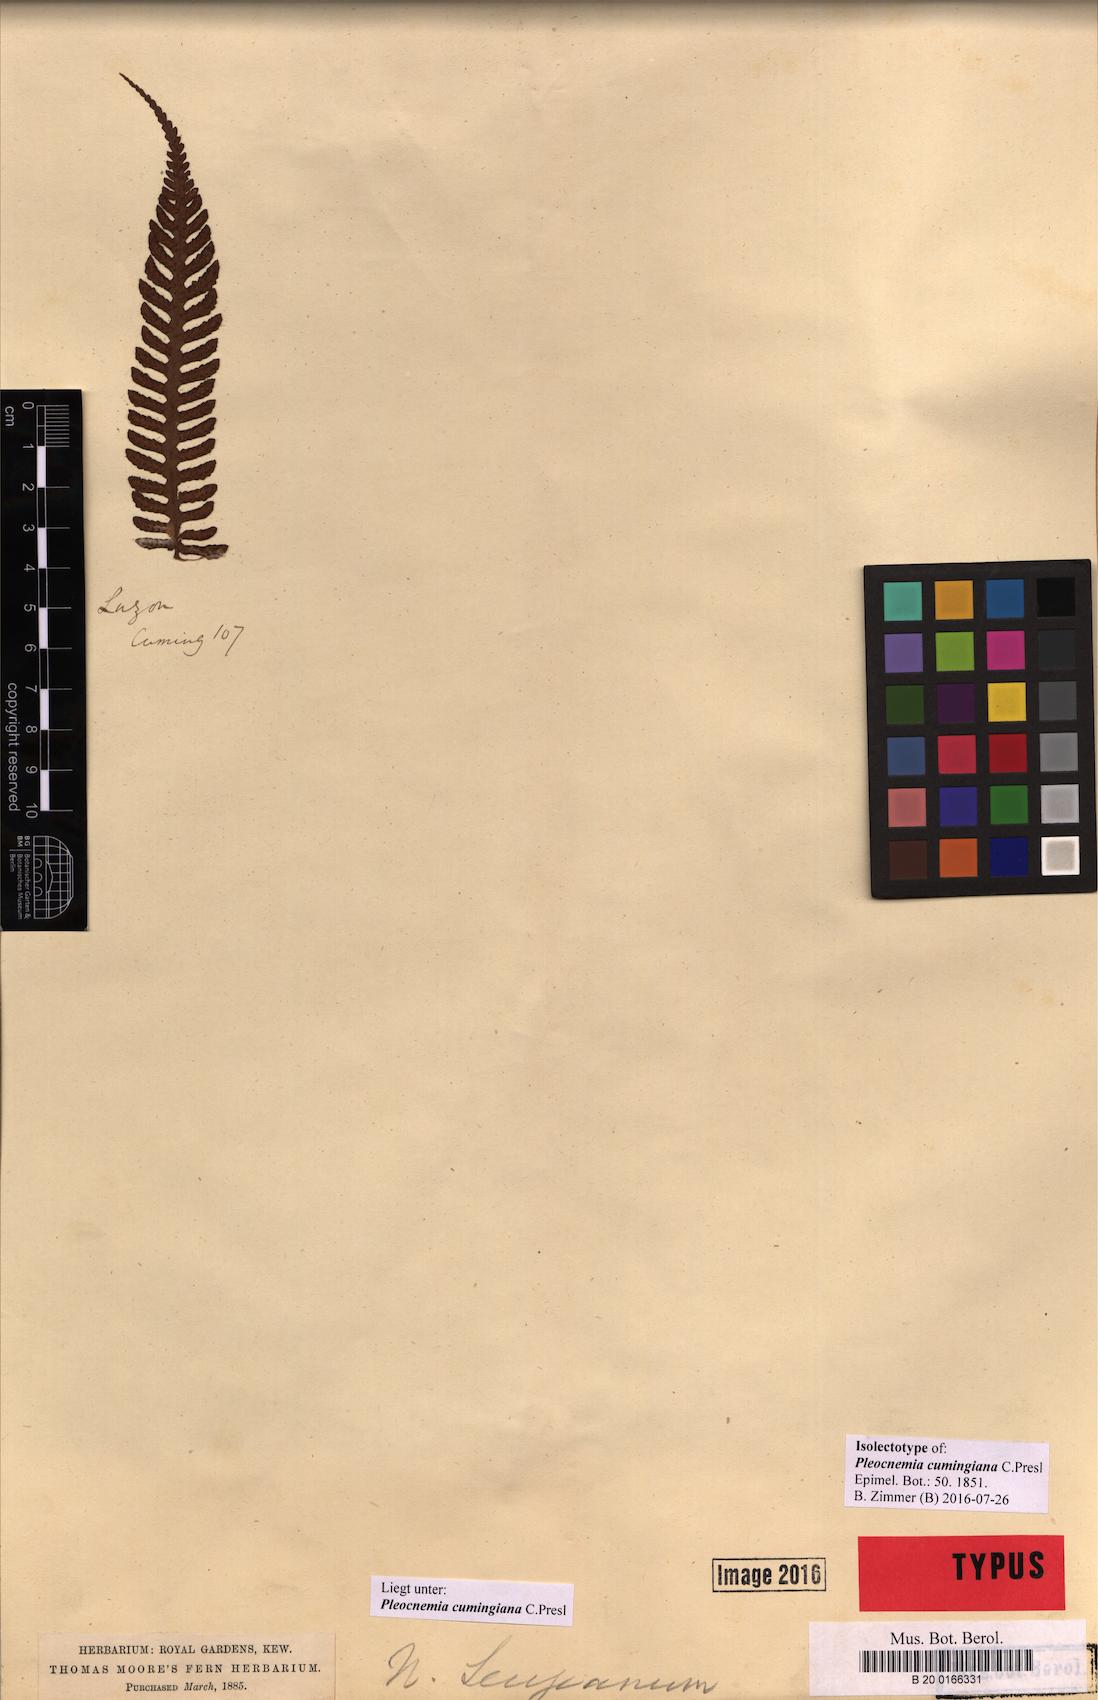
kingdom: Plantae
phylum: Tracheophyta
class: Polypodiopsida
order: Polypodiales
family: Dryopteridaceae
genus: Pleocnemia
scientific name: Pleocnemia cumingiana
